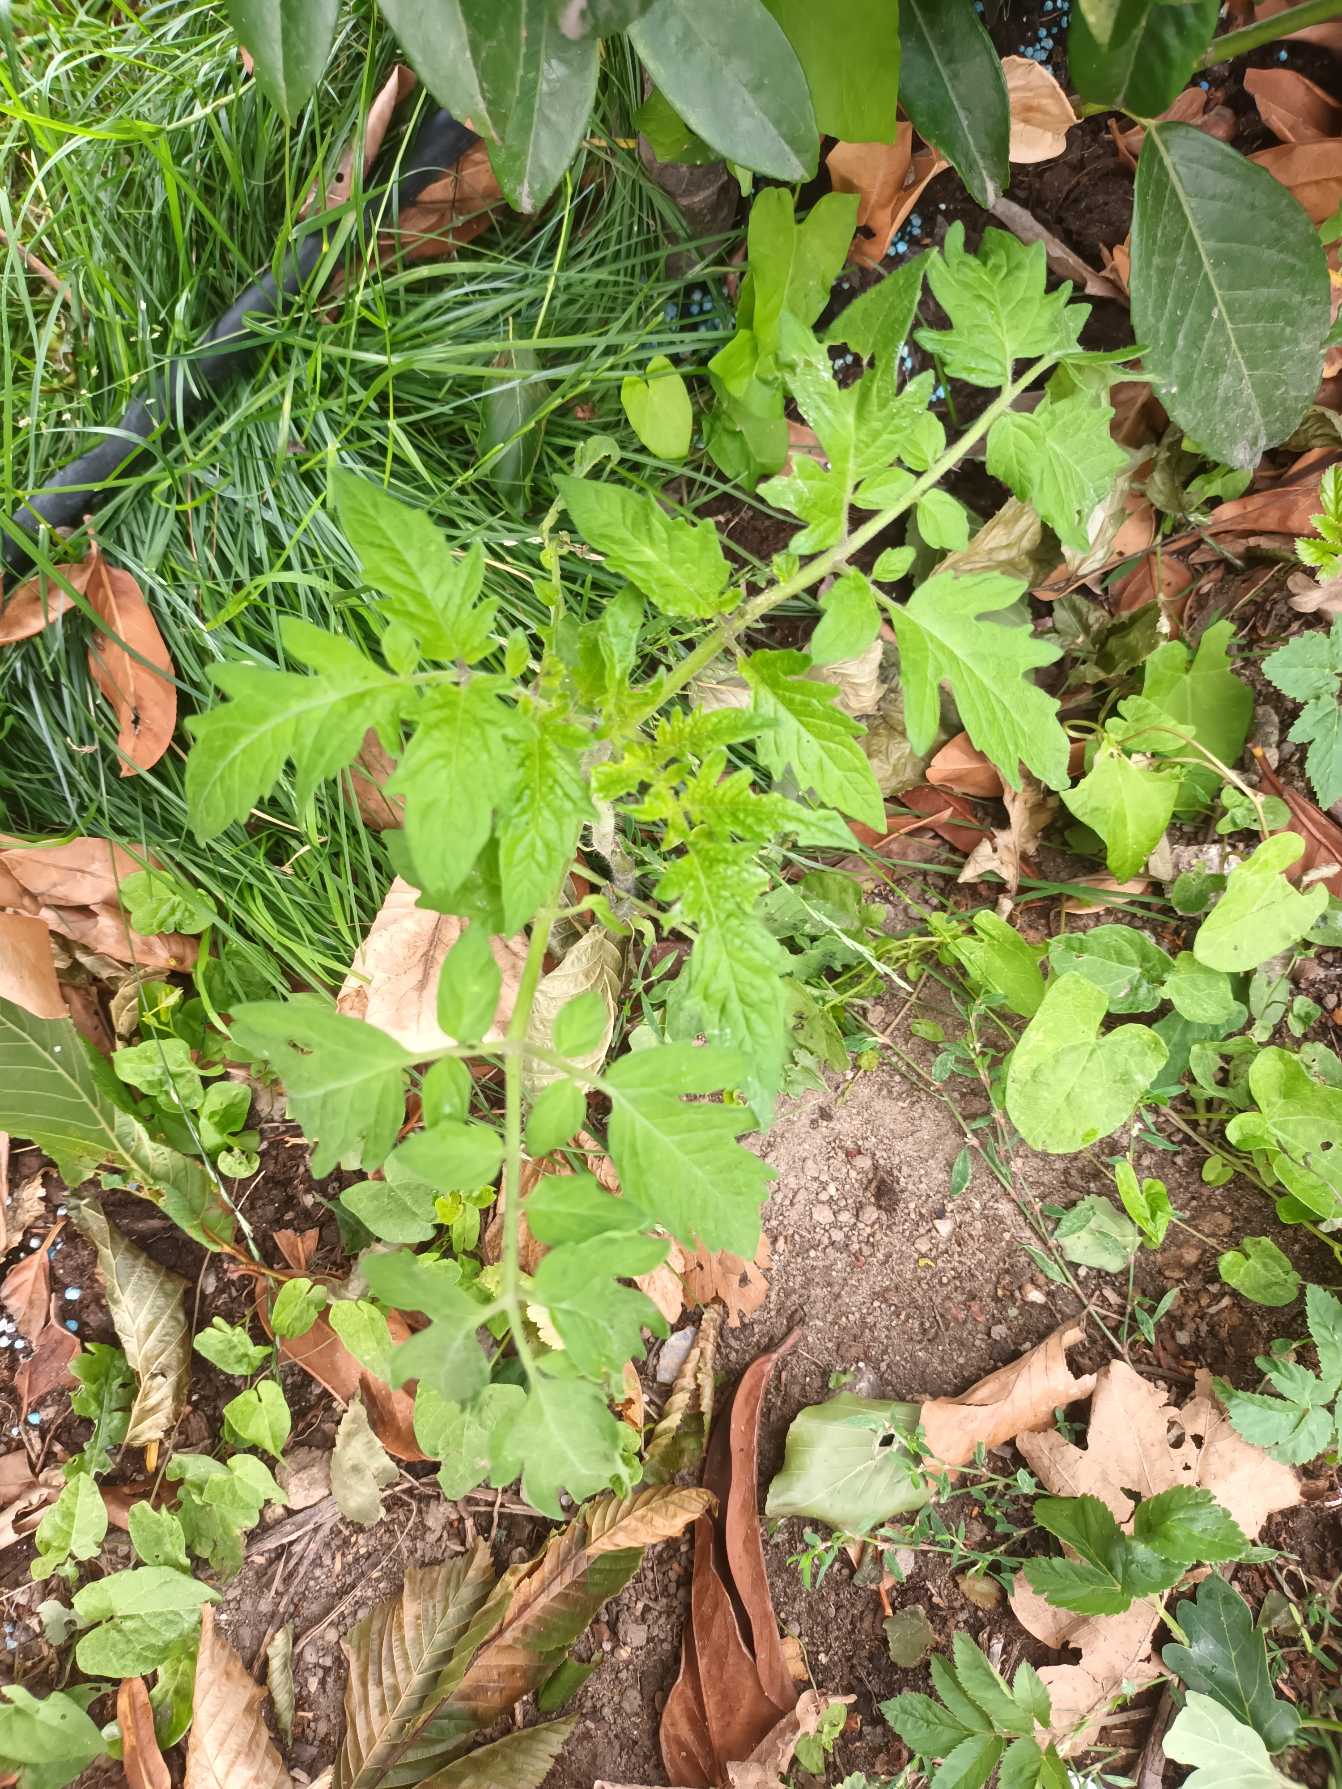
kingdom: Plantae
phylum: Tracheophyta
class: Magnoliopsida
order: Solanales
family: Solanaceae
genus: Solanum
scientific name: Solanum lycopersicum
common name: Tomat
